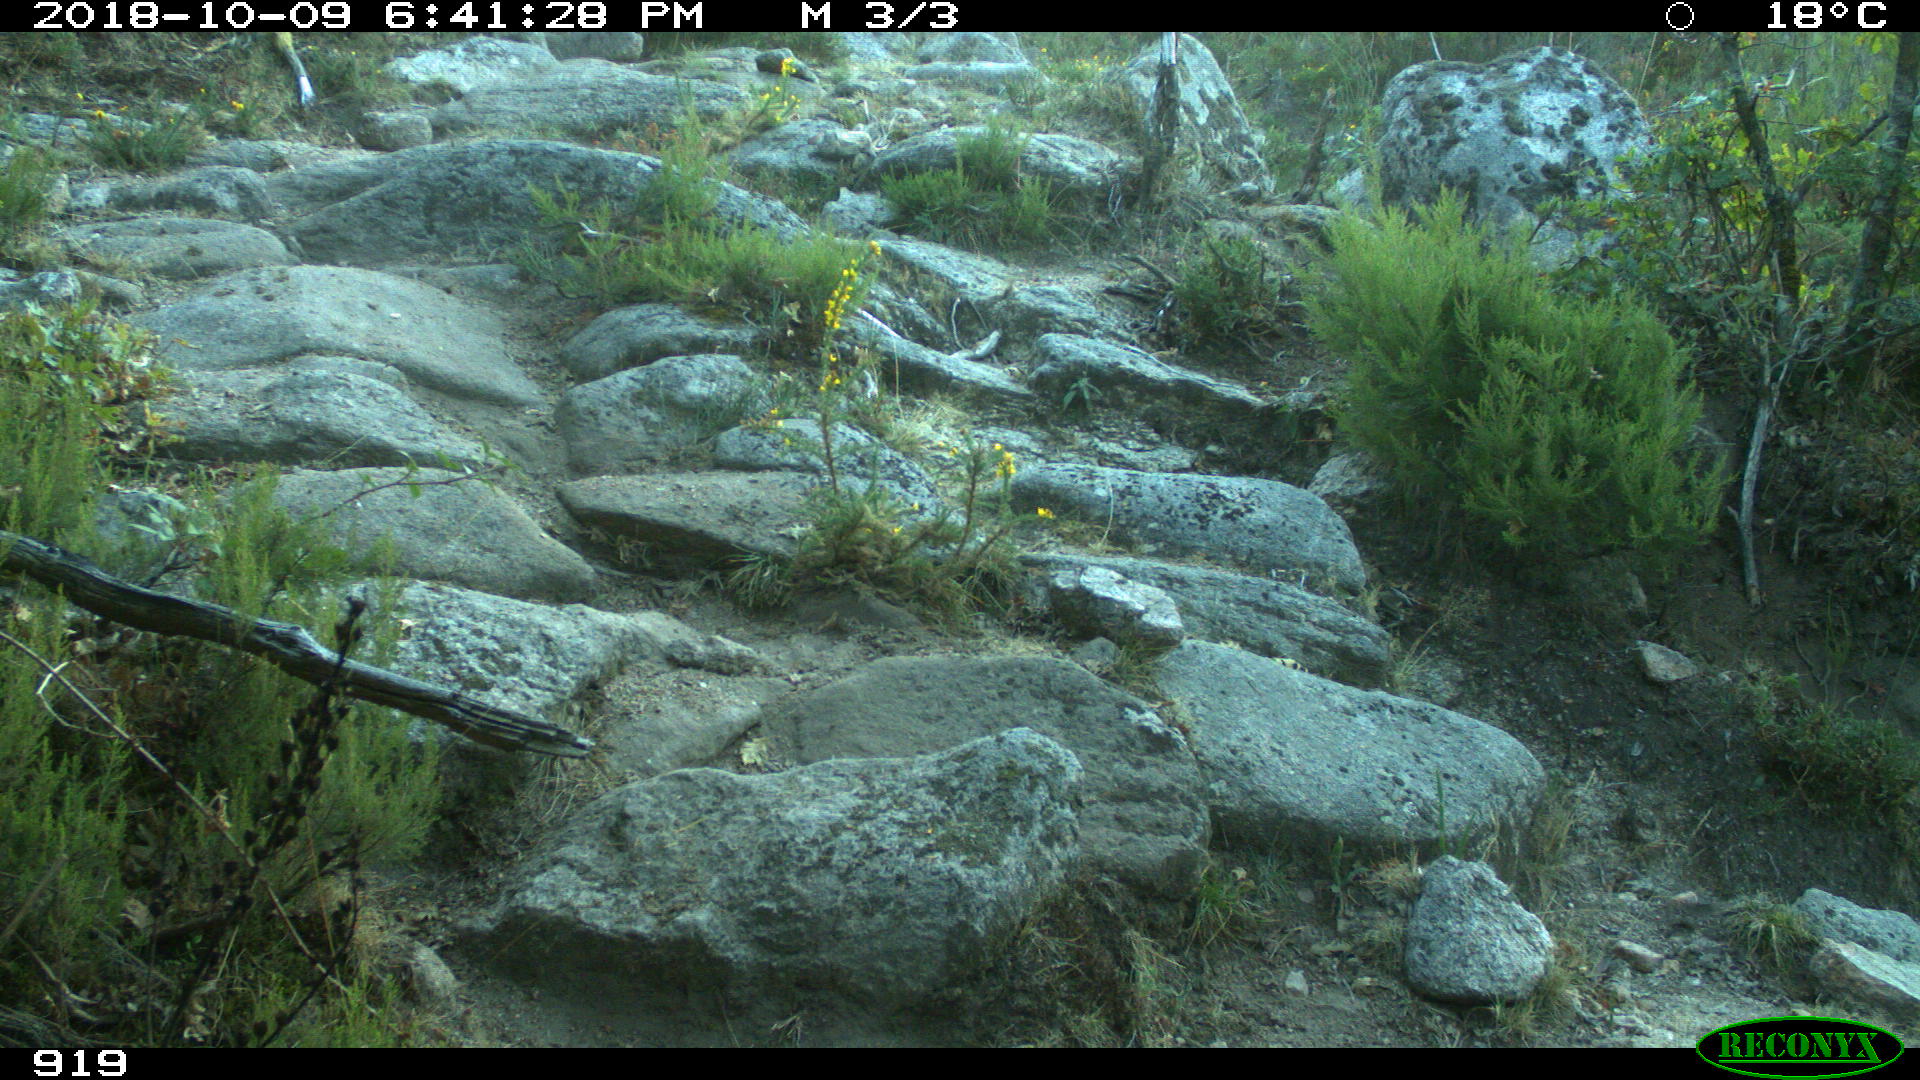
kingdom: Animalia
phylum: Chordata
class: Mammalia
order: Artiodactyla
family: Bovidae
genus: Bos
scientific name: Bos taurus
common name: Domesticated cattle
